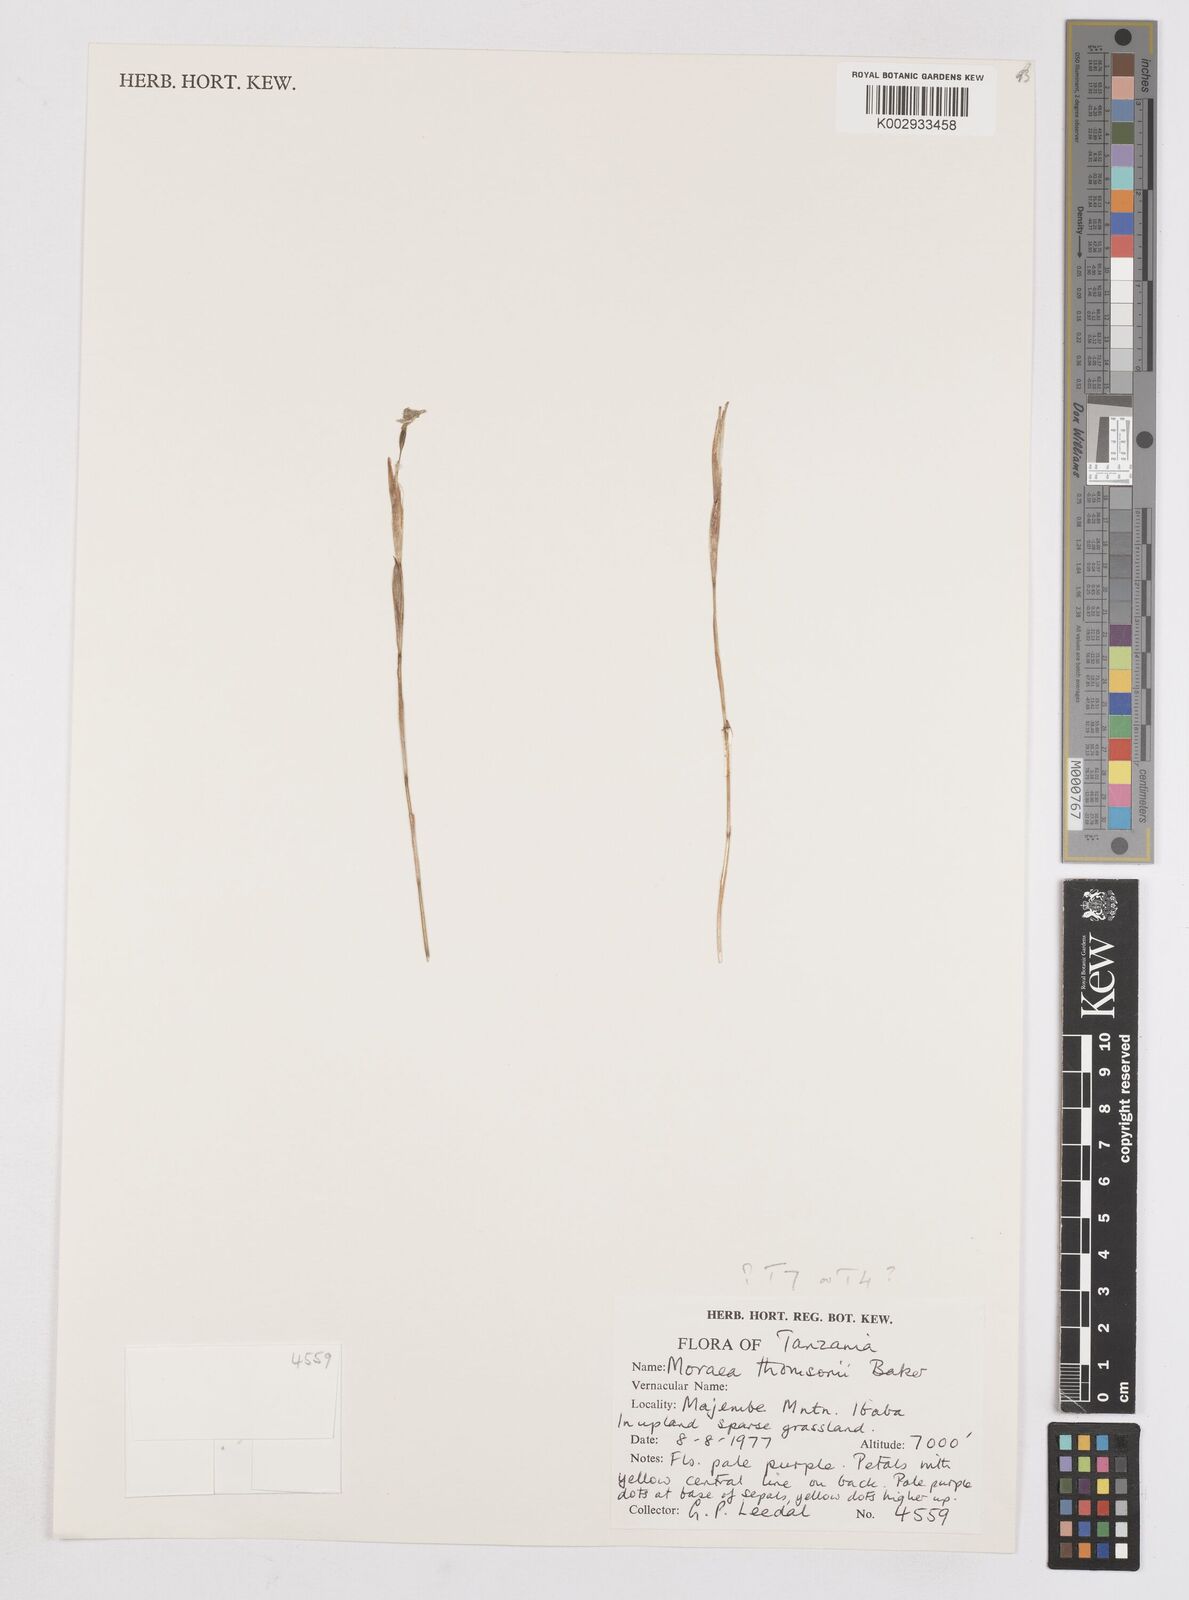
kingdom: Plantae
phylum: Tracheophyta
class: Liliopsida
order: Asparagales
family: Iridaceae
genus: Moraea
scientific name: Moraea stricta
